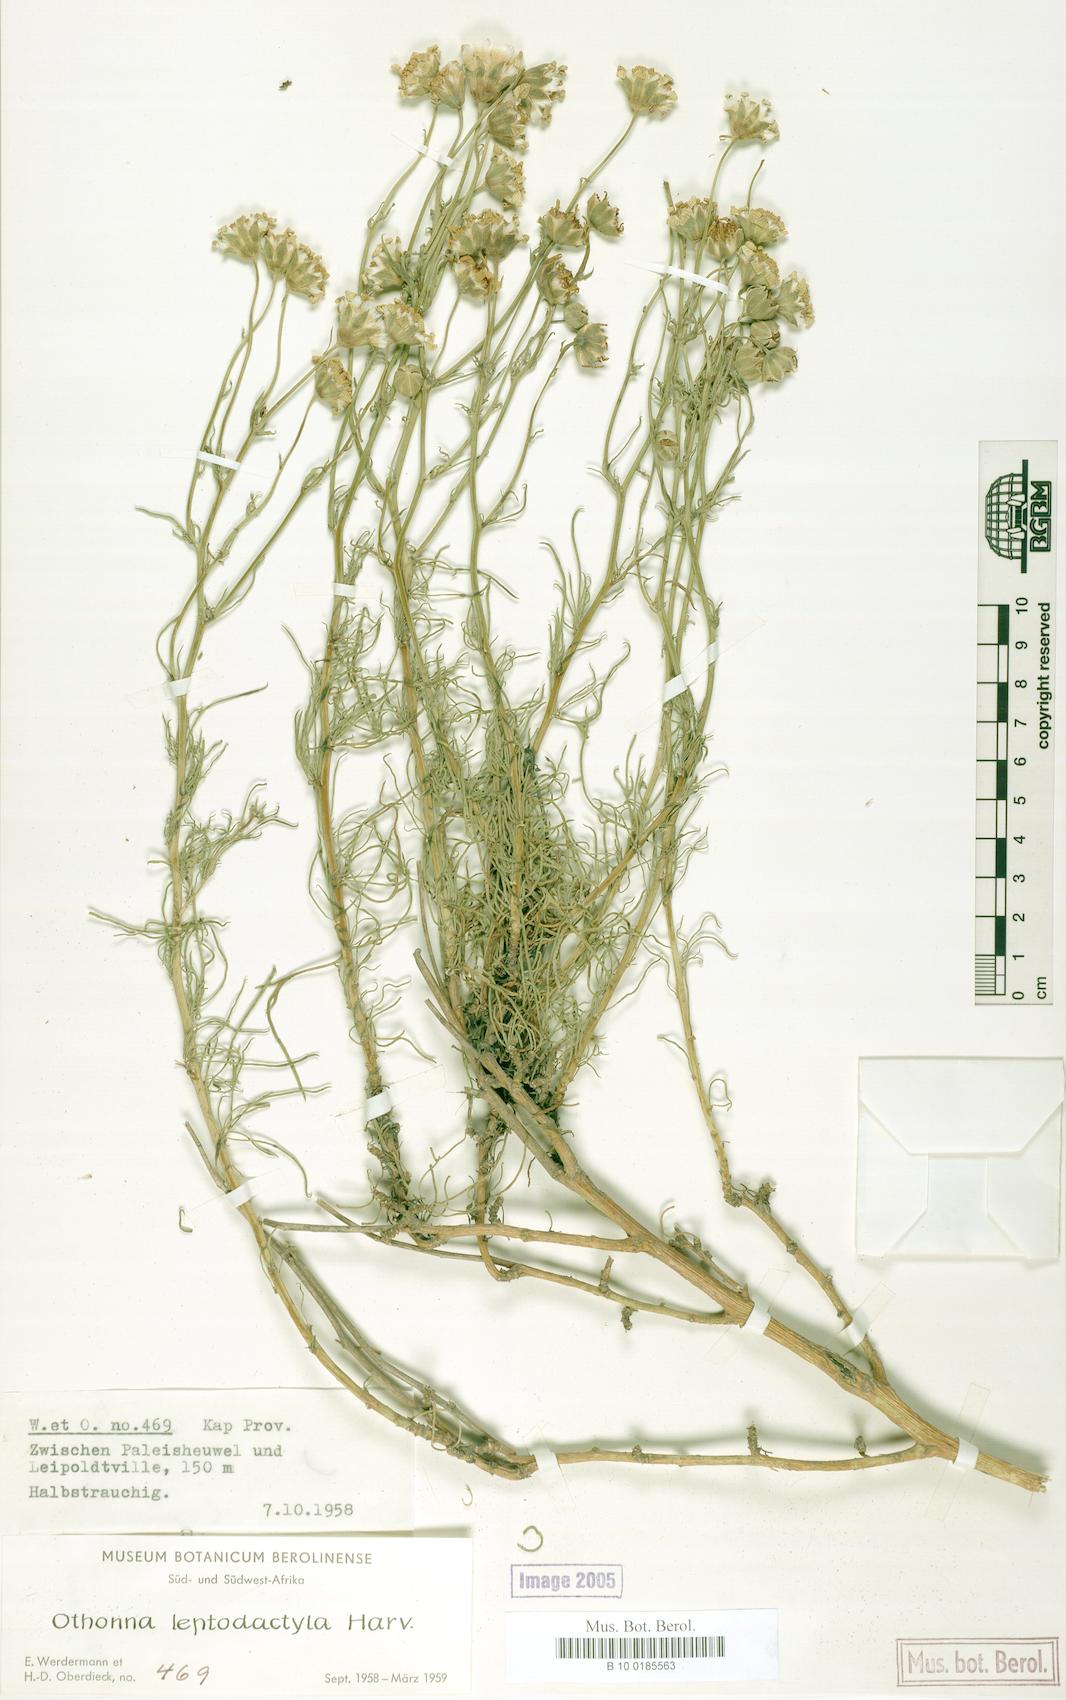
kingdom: Plantae
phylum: Tracheophyta
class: Magnoliopsida
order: Asterales
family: Asteraceae
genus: Othonna
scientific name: Othonna leptodactyla
